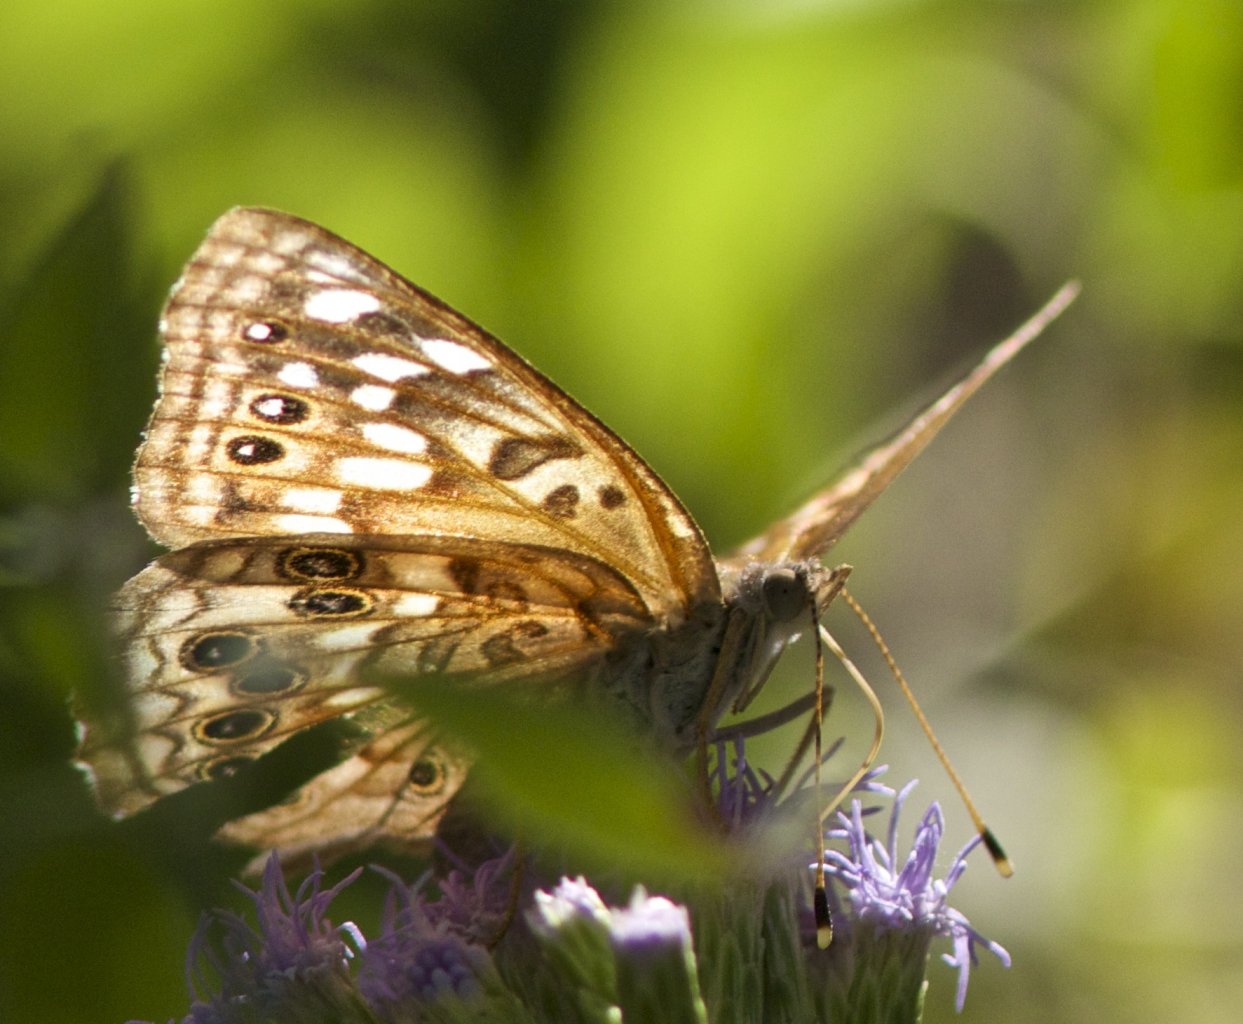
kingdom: Animalia
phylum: Arthropoda
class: Insecta
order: Lepidoptera
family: Nymphalidae
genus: Asterocampa
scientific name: Asterocampa celtis
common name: Hackberry Emperor
